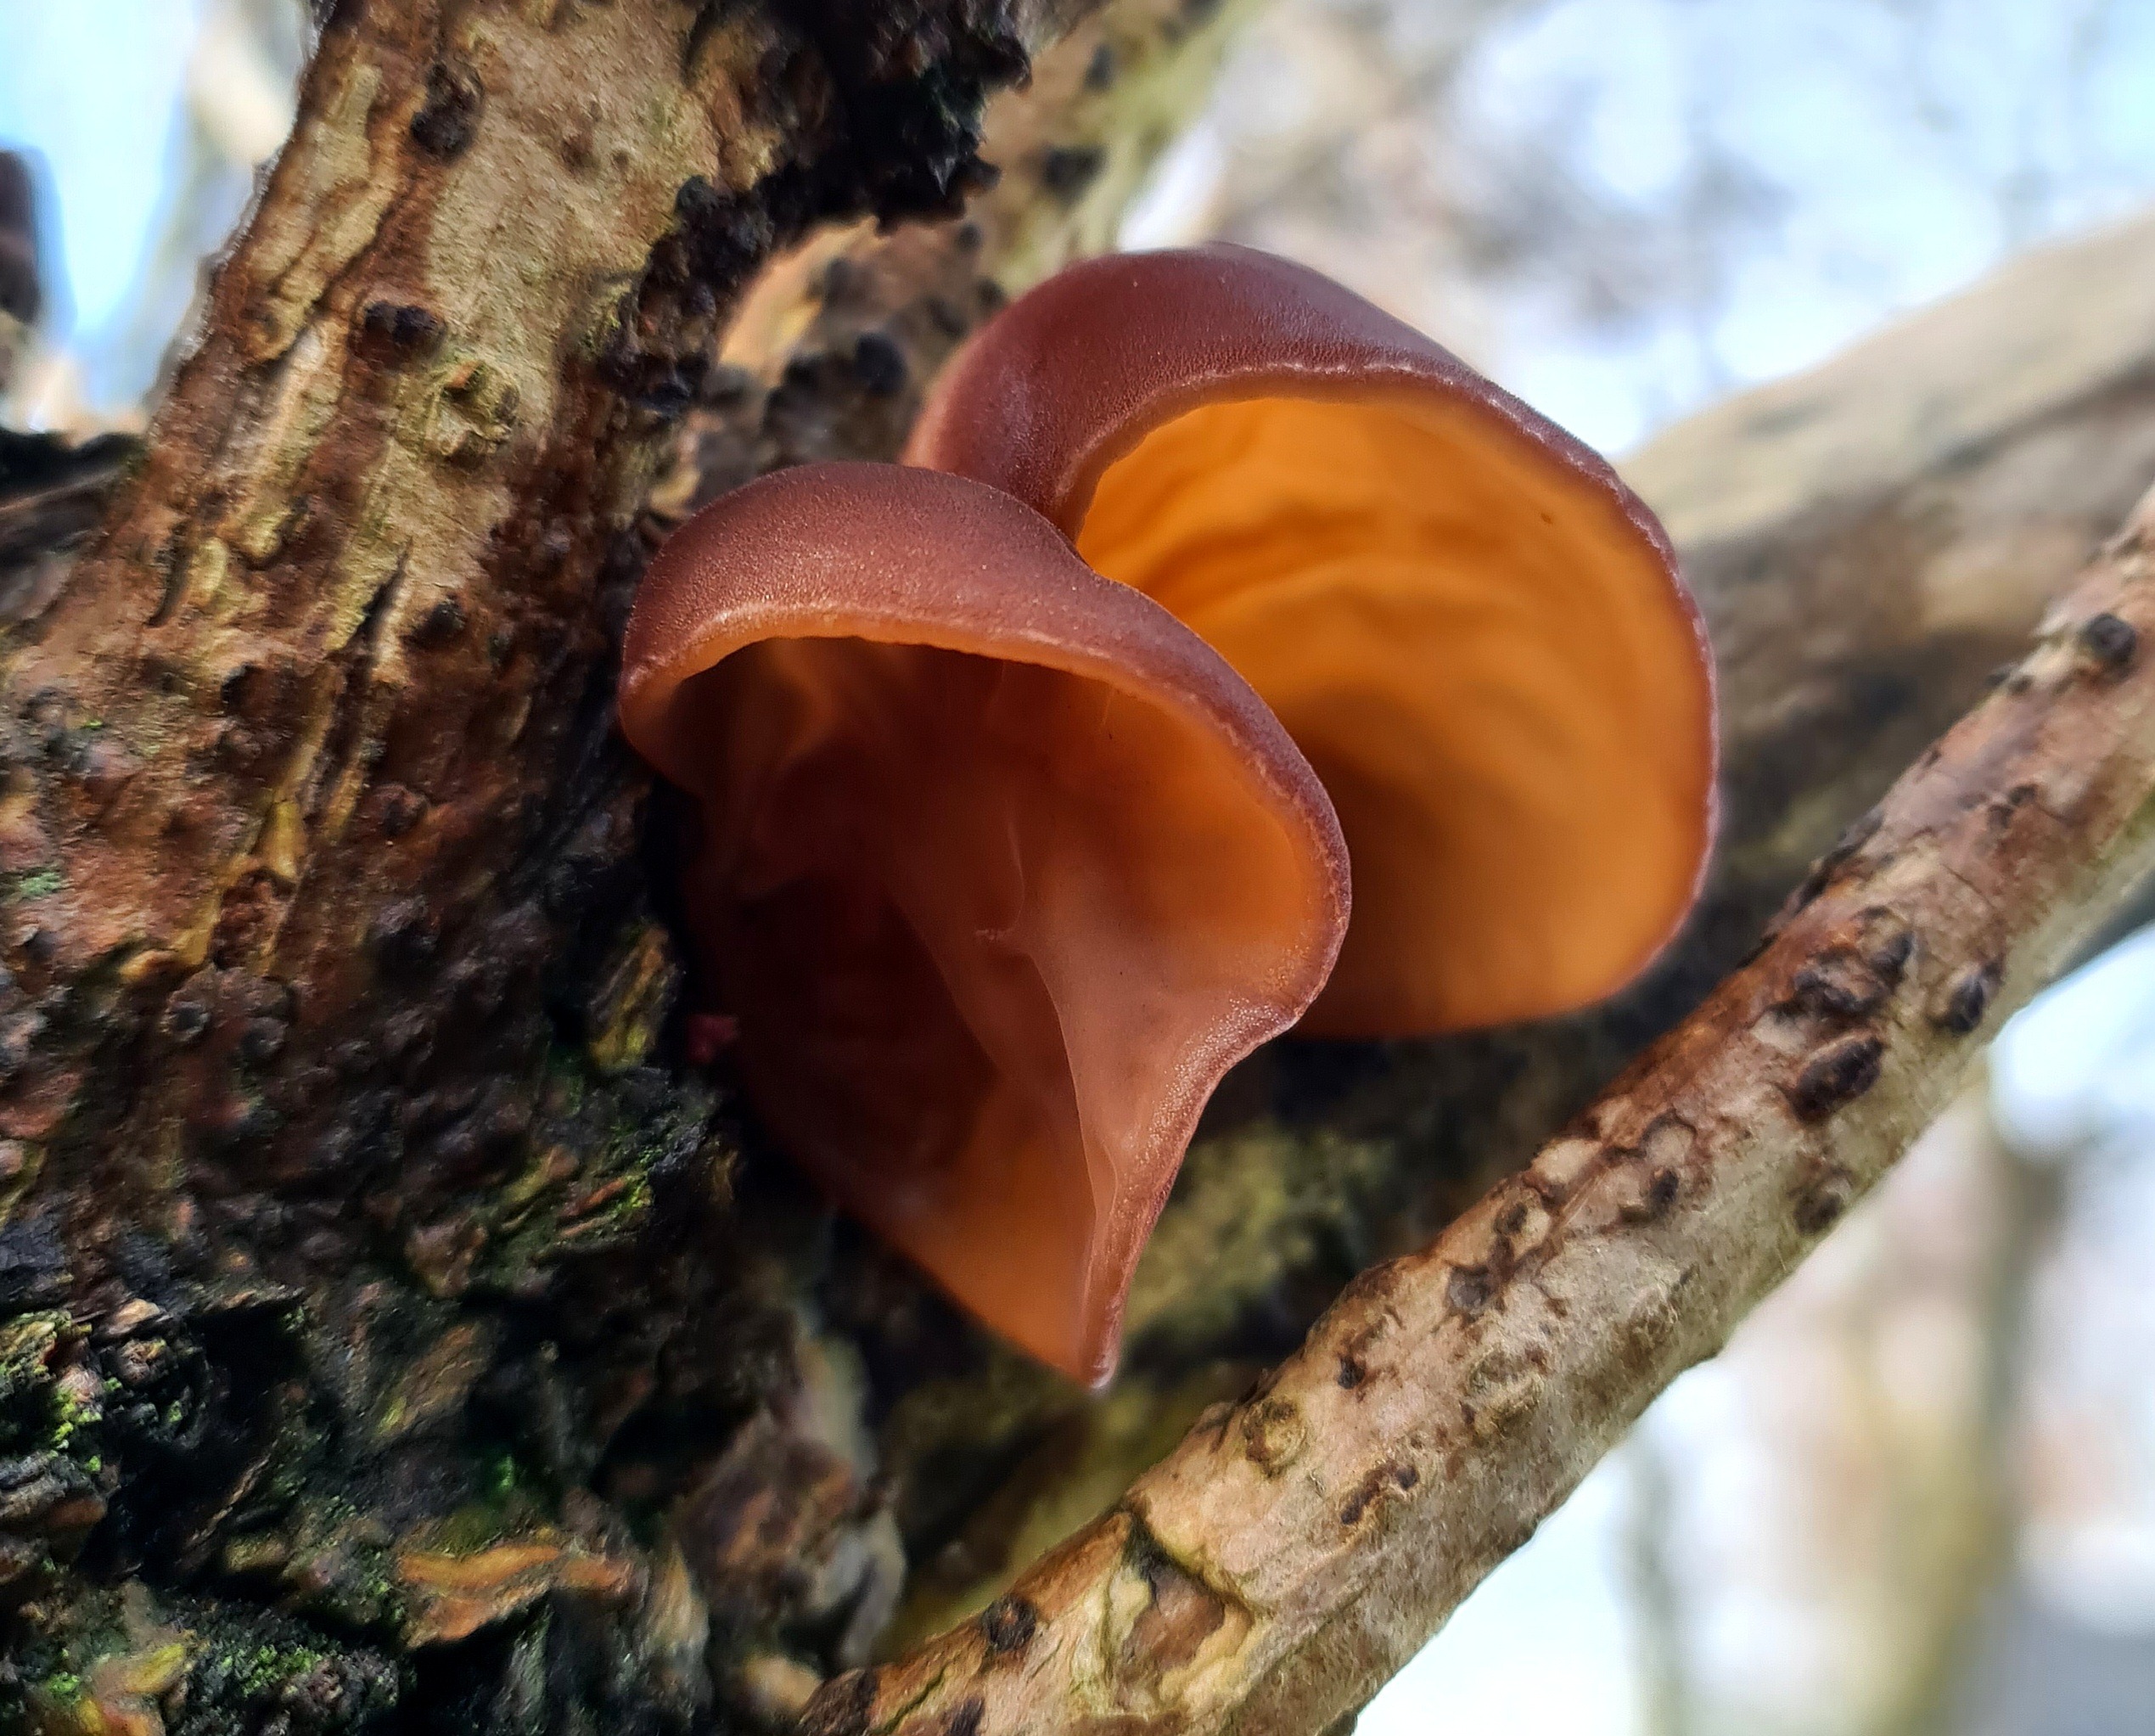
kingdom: Fungi
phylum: Basidiomycota
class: Agaricomycetes
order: Auriculariales
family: Auriculariaceae
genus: Auricularia
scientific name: Auricularia auricula-judae
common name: Almindelig judasøre
